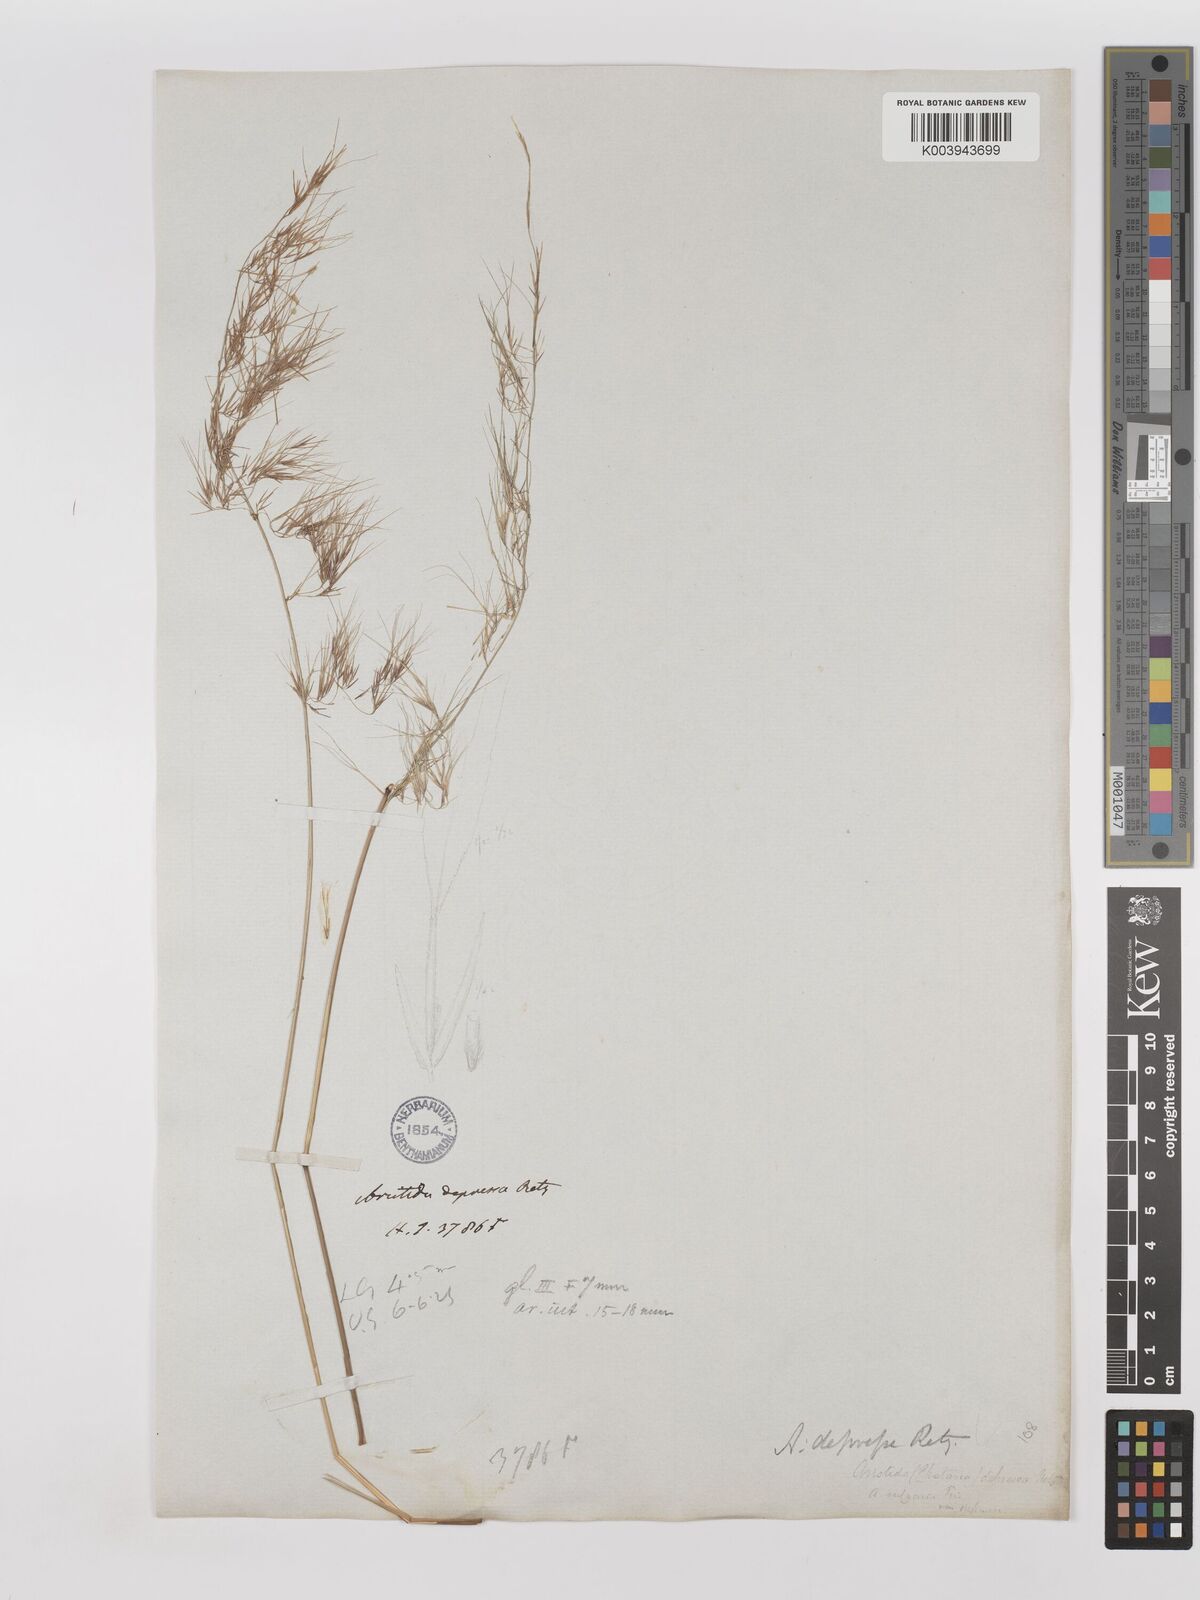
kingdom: Plantae
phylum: Tracheophyta
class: Liliopsida
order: Poales
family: Poaceae
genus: Aristida
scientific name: Aristida adscensionis
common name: Sixweeks threeawn
